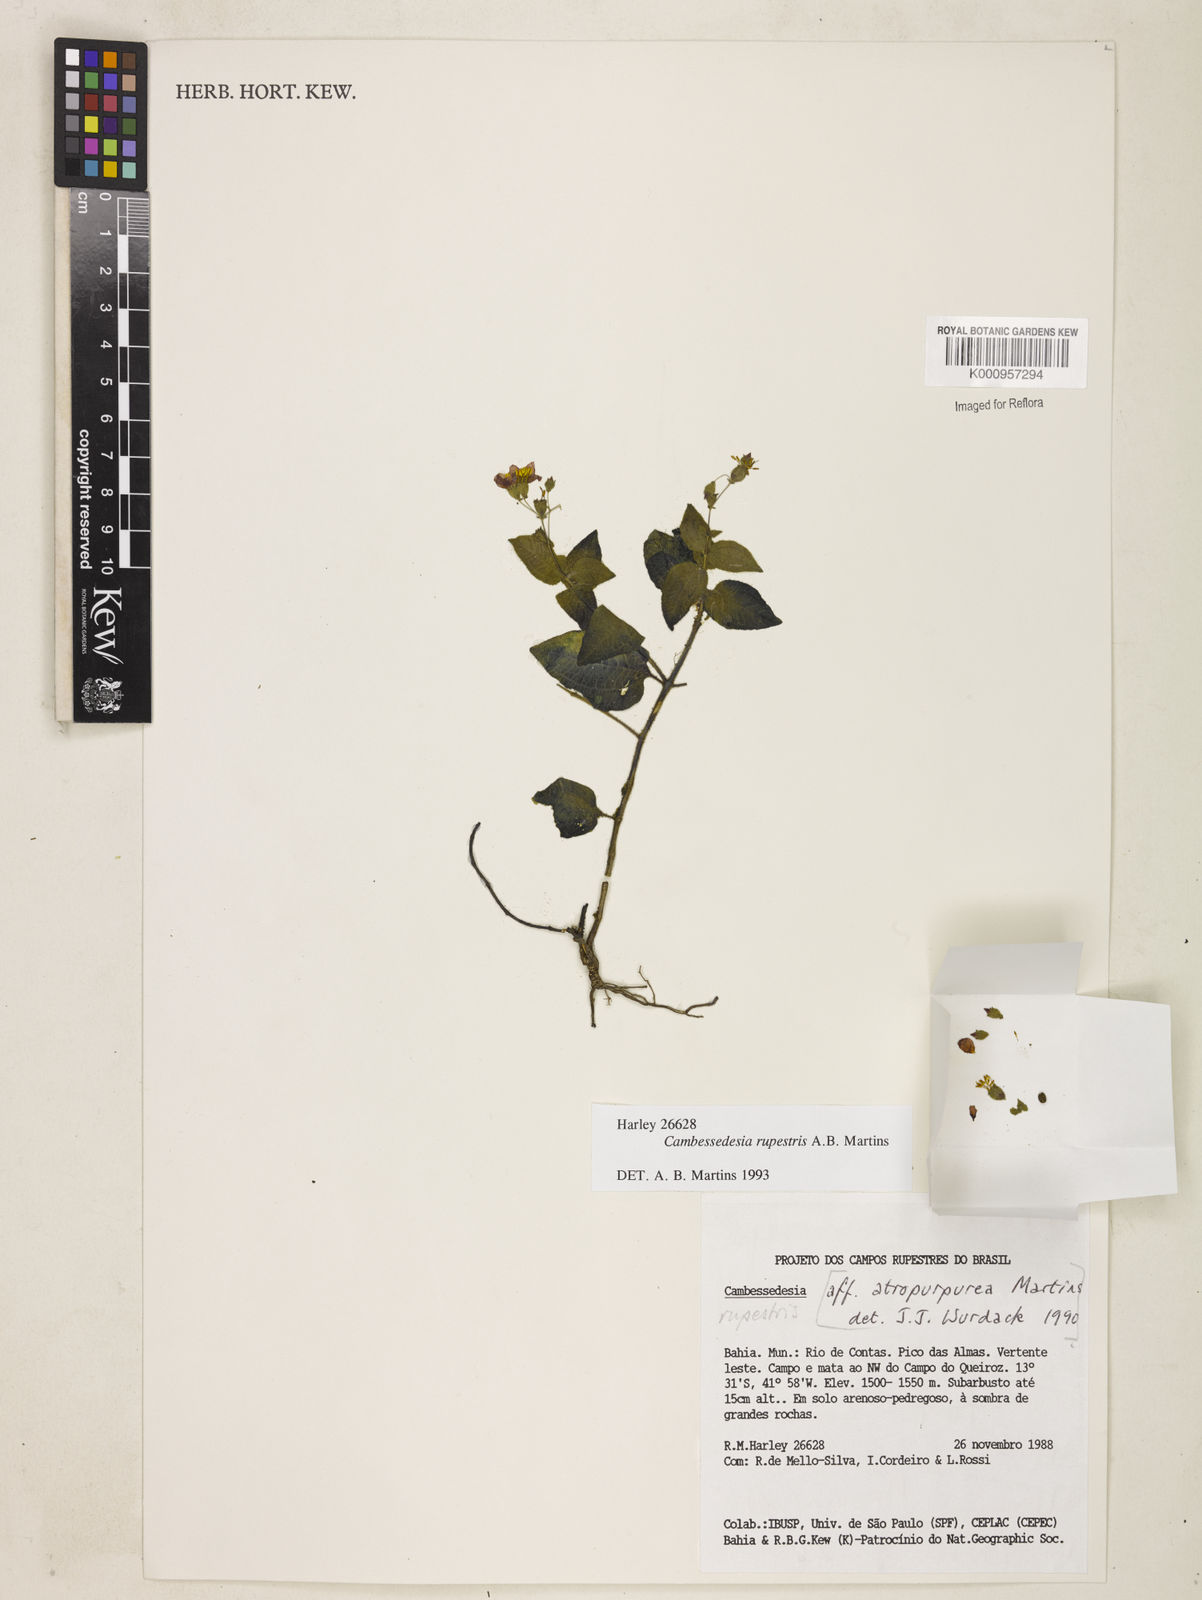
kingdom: Plantae
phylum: Tracheophyta
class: Magnoliopsida
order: Myrtales
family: Melastomataceae
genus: Cambessedesia
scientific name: Cambessedesia rupestris
